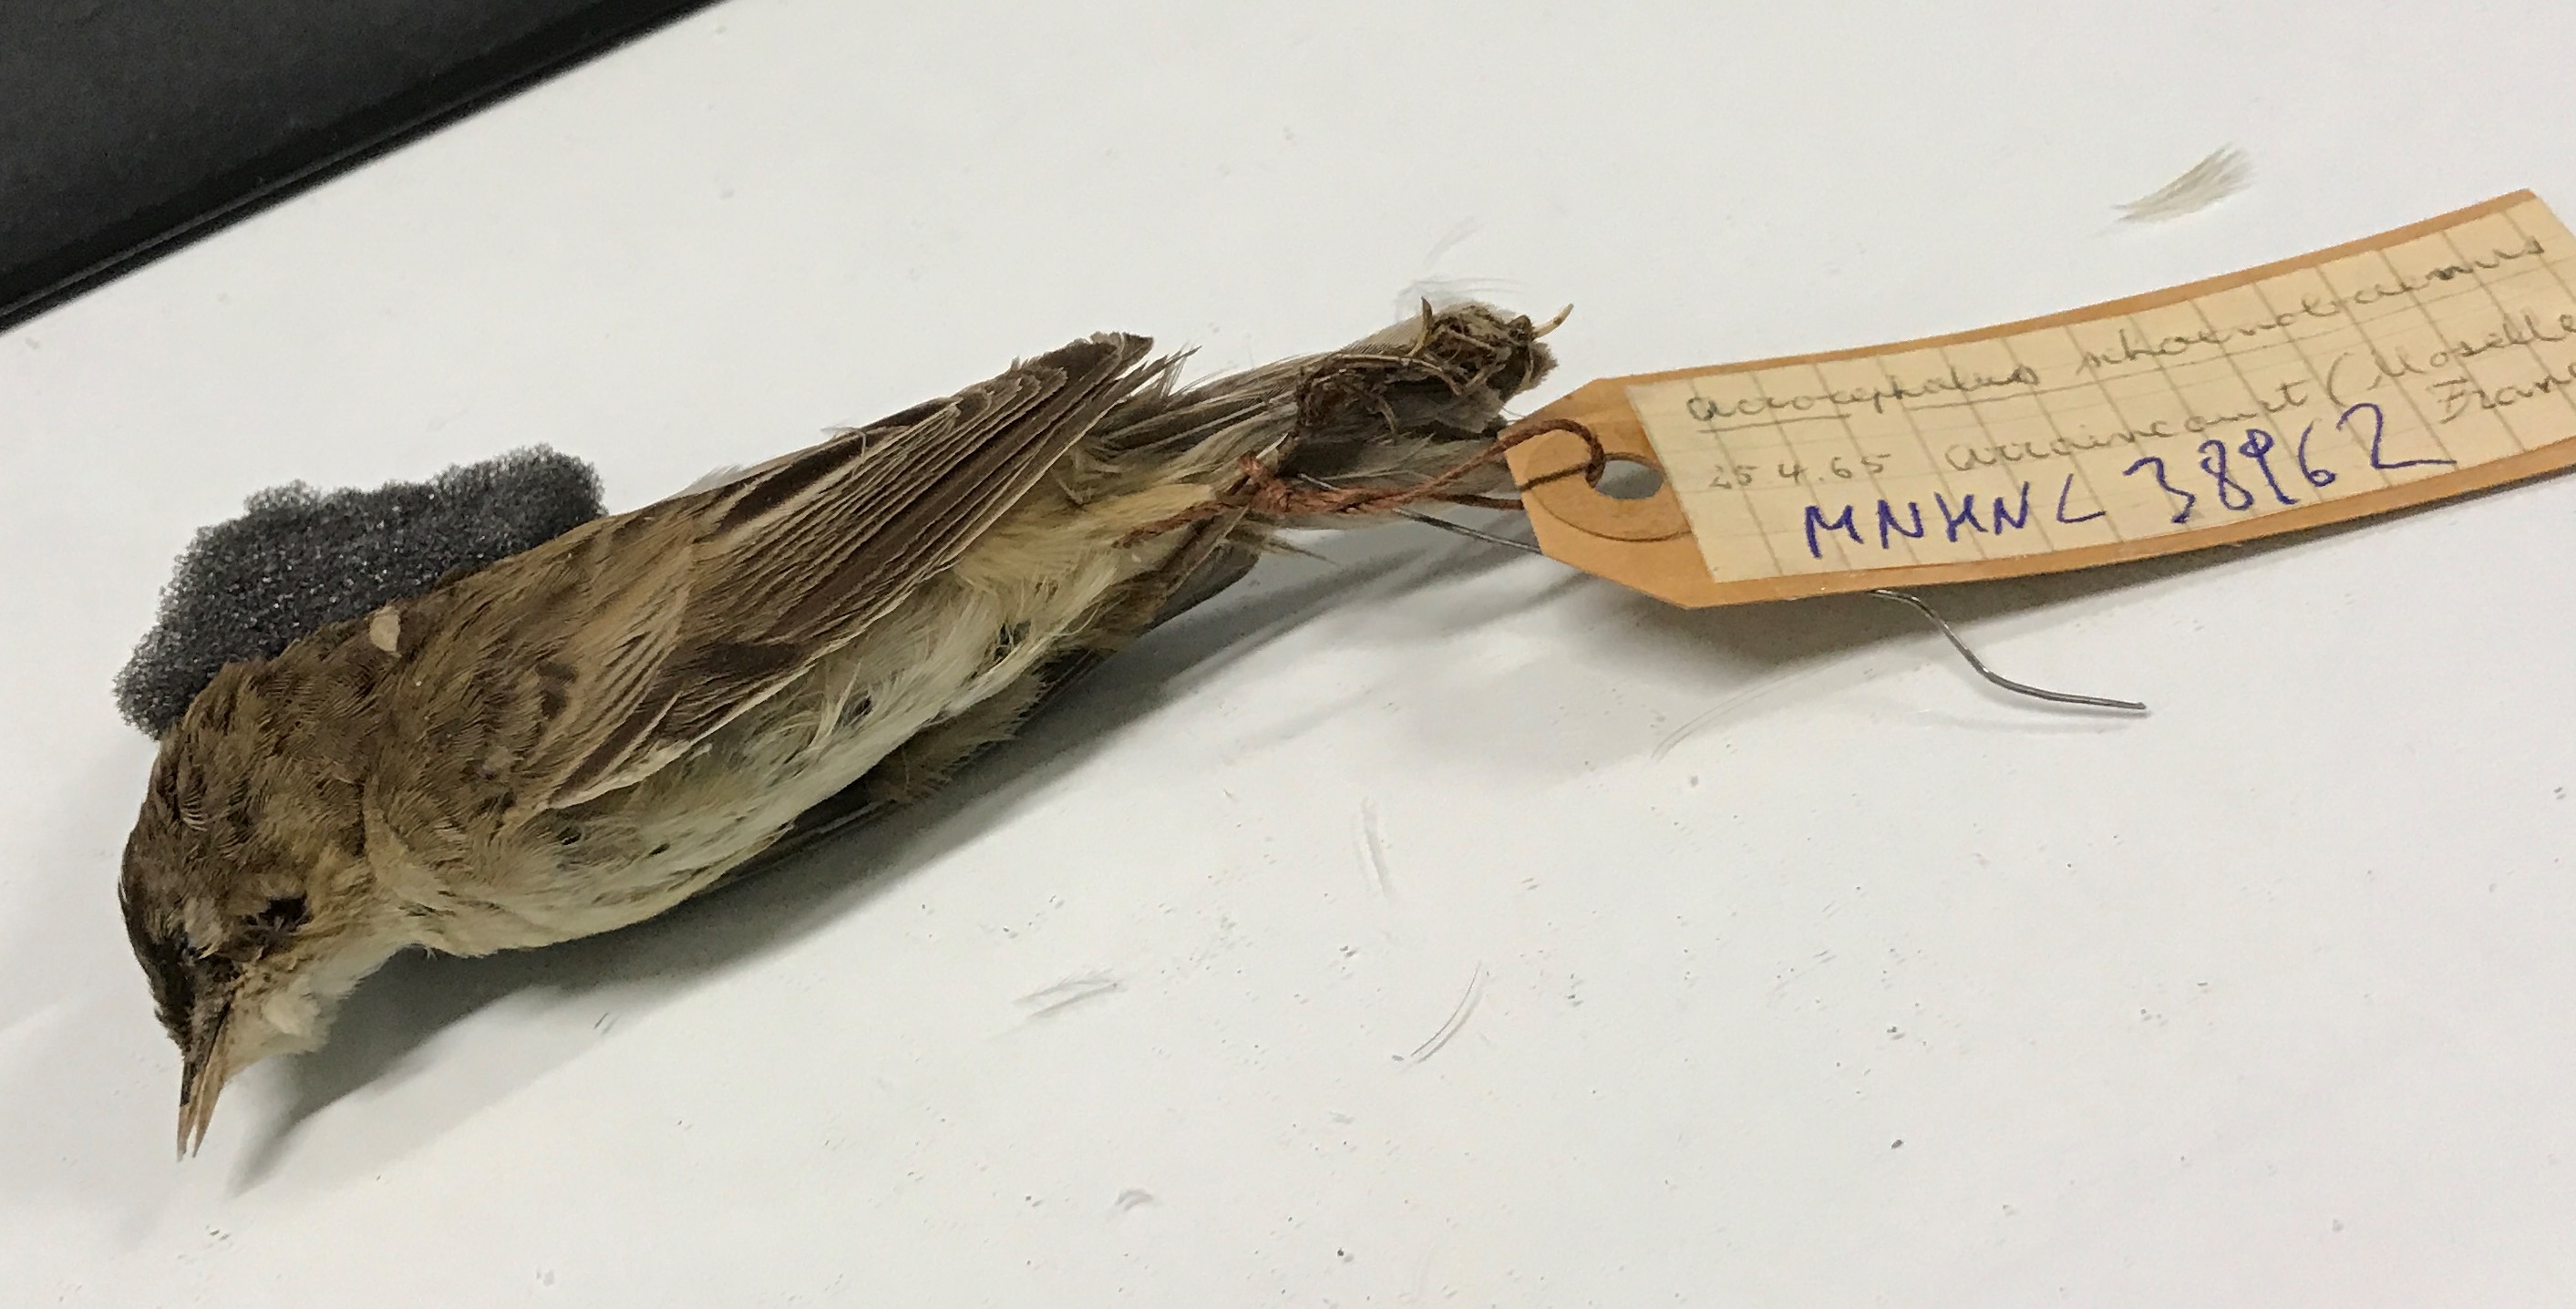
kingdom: Animalia
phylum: Chordata
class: Aves
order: Passeriformes
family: Acrocephalidae
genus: Acrocephalus
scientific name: Acrocephalus schoenobaenus
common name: Sedge warbler
